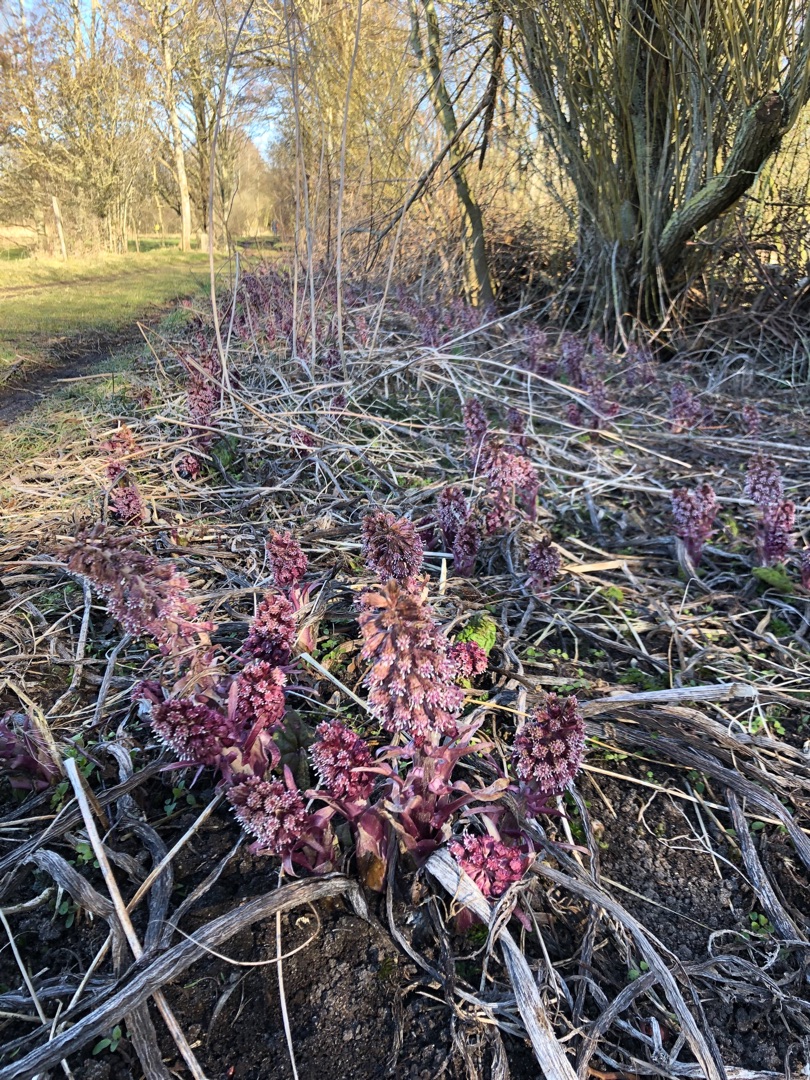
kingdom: Plantae
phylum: Tracheophyta
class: Magnoliopsida
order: Asterales
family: Asteraceae
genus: Petasites
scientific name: Petasites hybridus
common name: Rød hestehov
